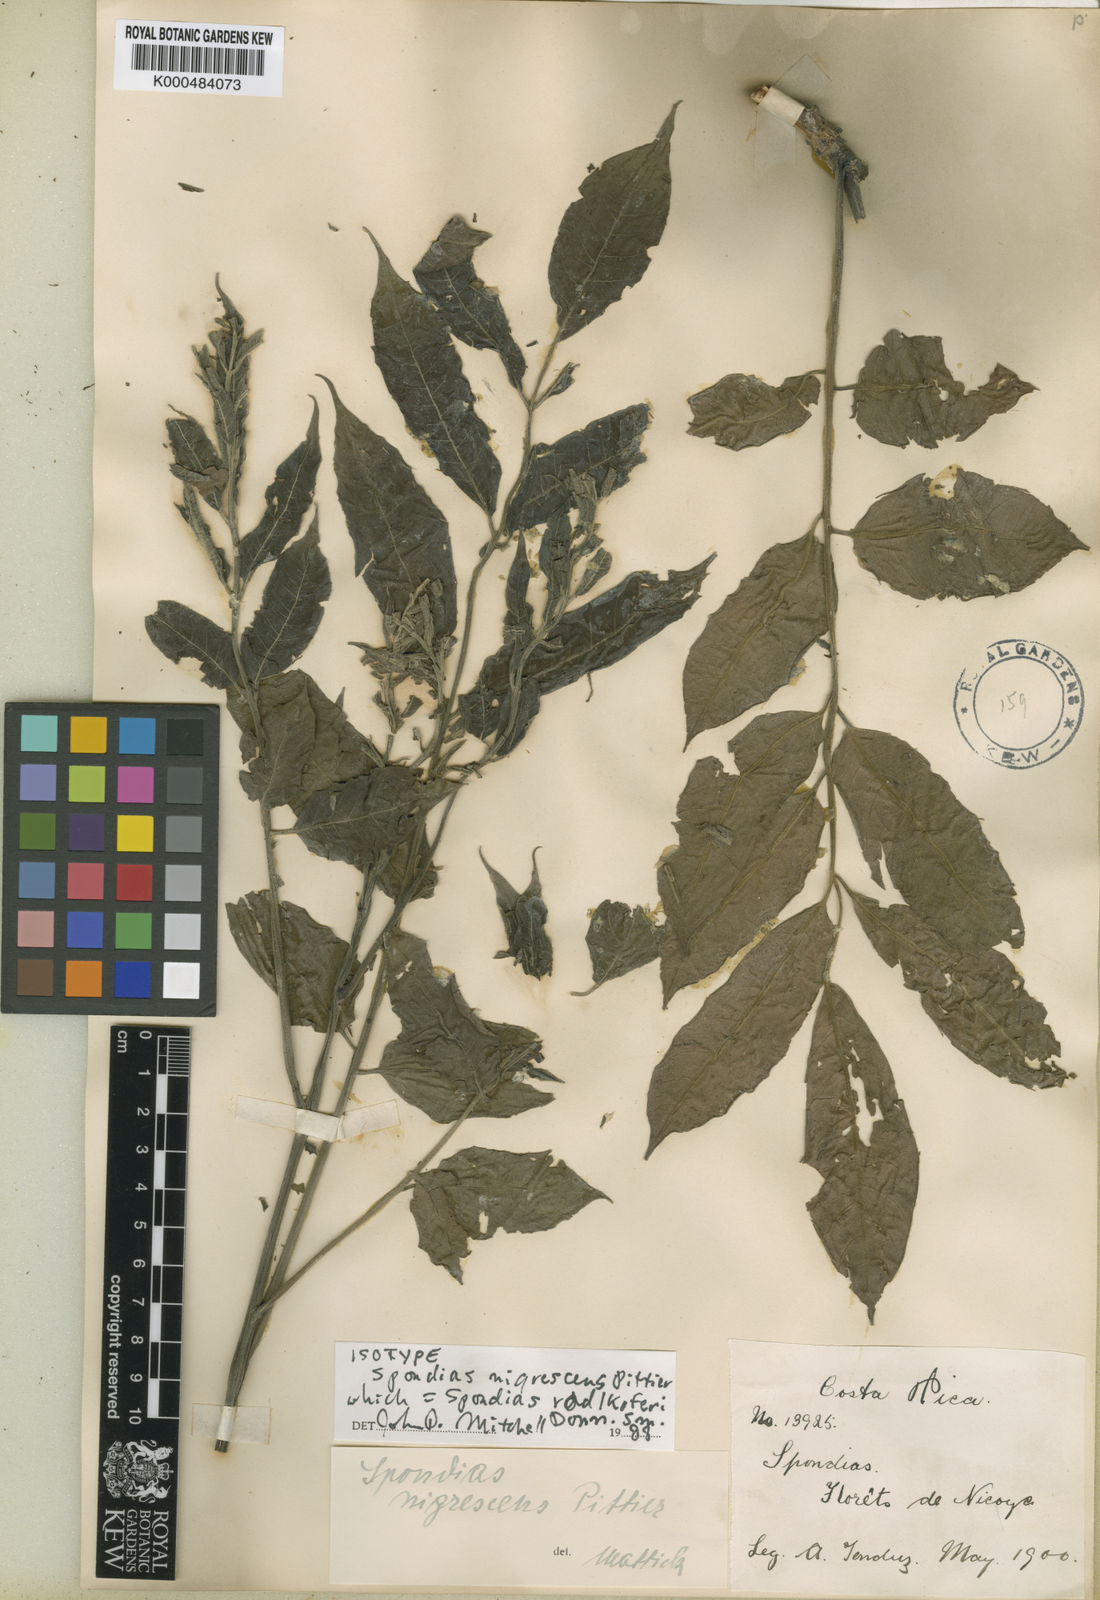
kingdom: Plantae
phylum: Tracheophyta
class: Magnoliopsida
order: Sapindales
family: Anacardiaceae
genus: Spondias
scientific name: Spondias radlkoferi
